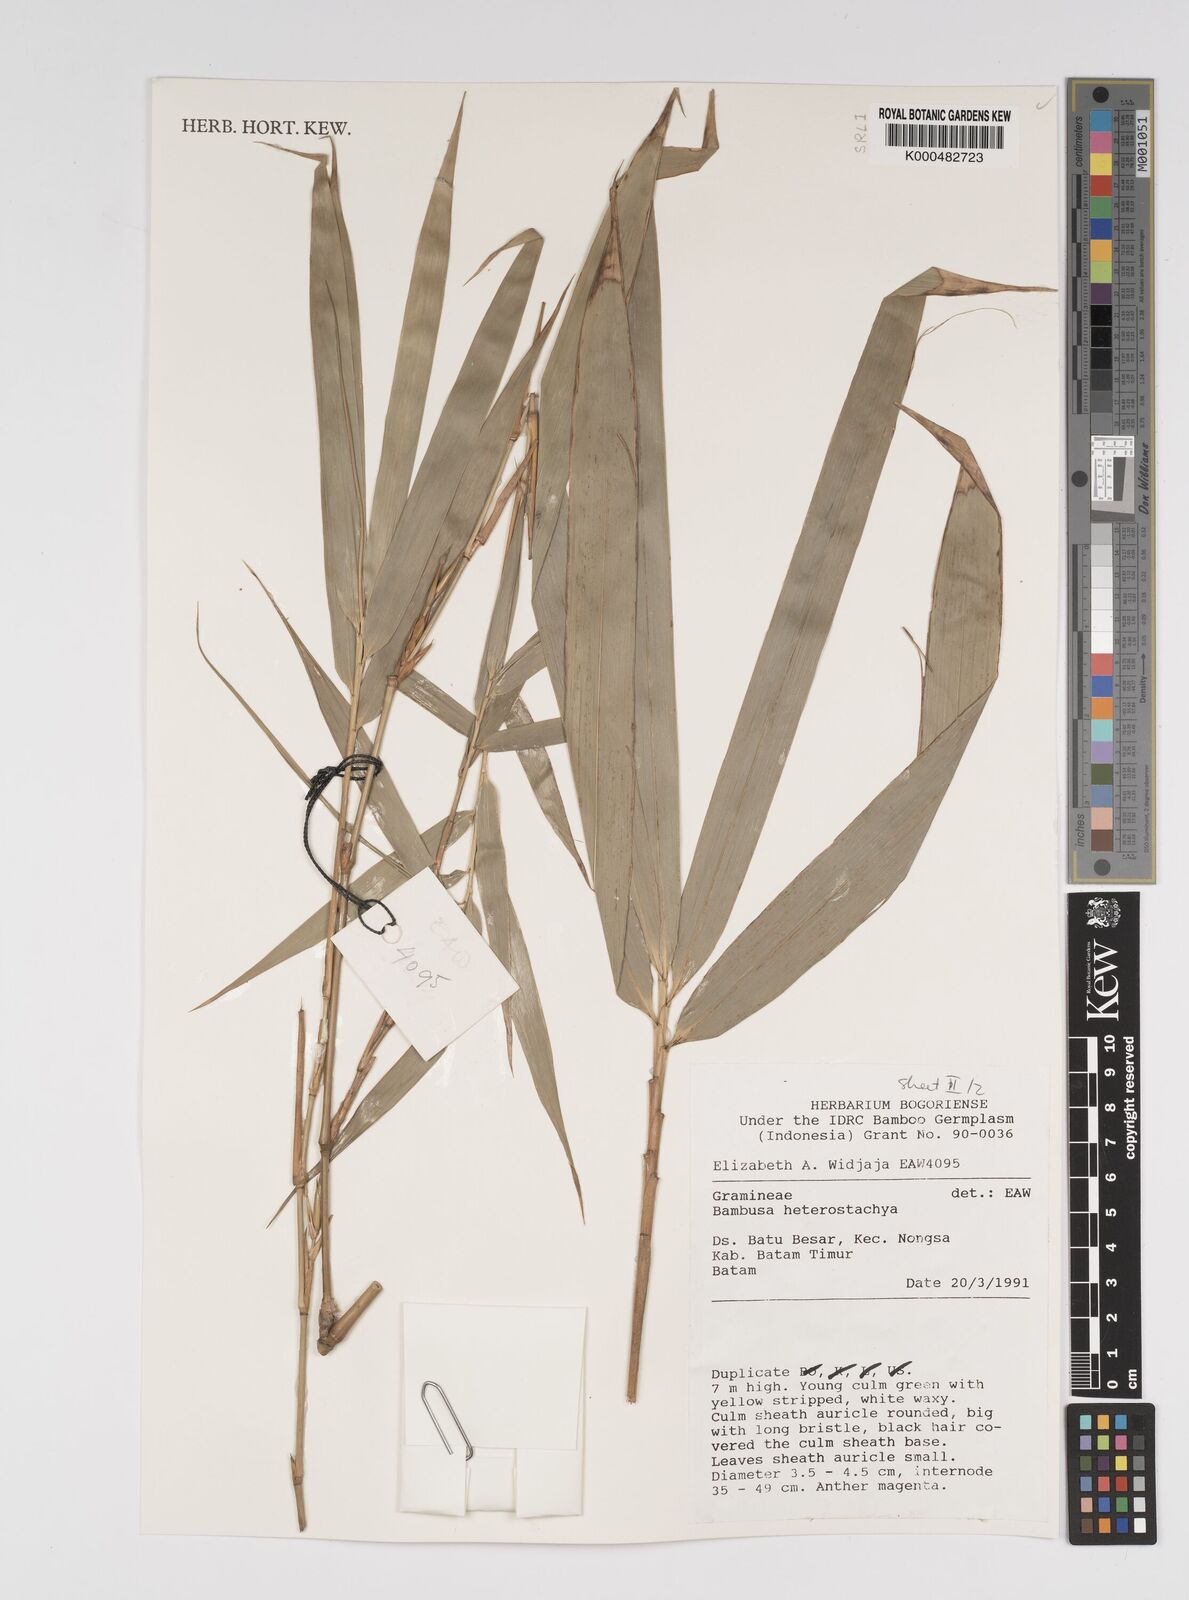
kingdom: Plantae
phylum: Tracheophyta
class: Liliopsida
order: Poales
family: Poaceae
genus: Bambusa
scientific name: Bambusa
